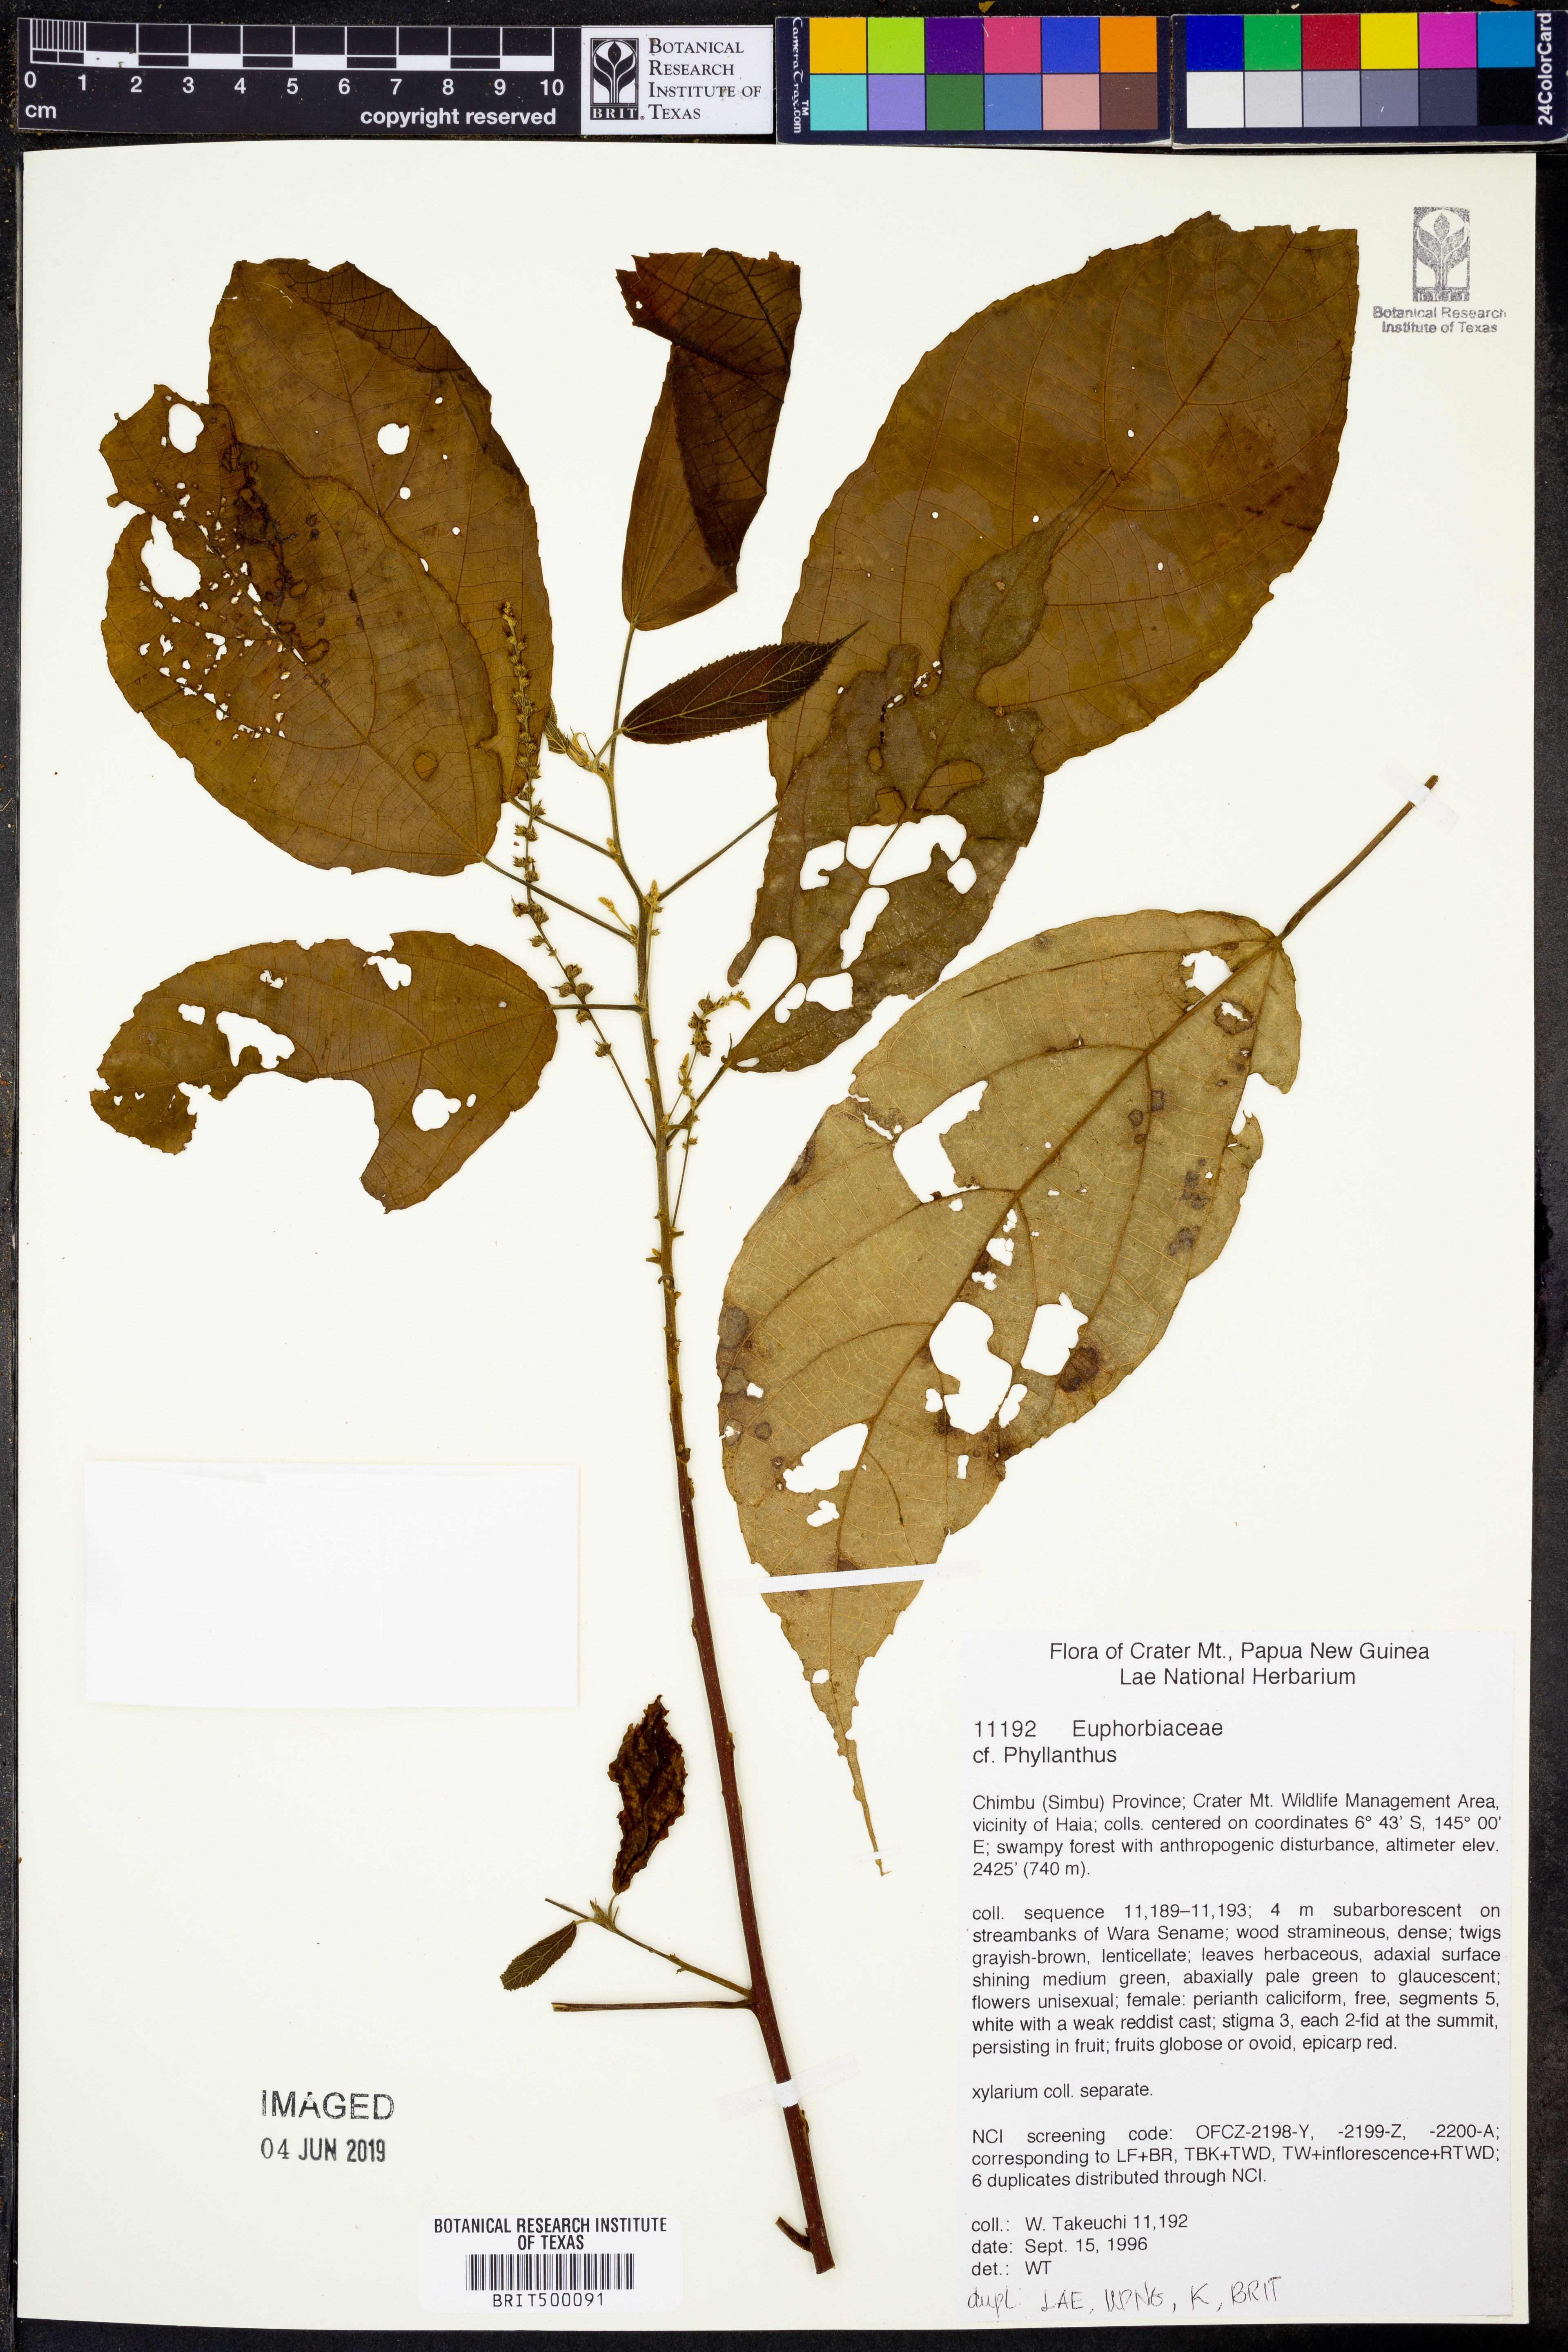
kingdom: Plantae
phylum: Tracheophyta
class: Magnoliopsida
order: Malpighiales
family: Phyllanthaceae
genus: Phyllanthus
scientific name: Phyllanthus
